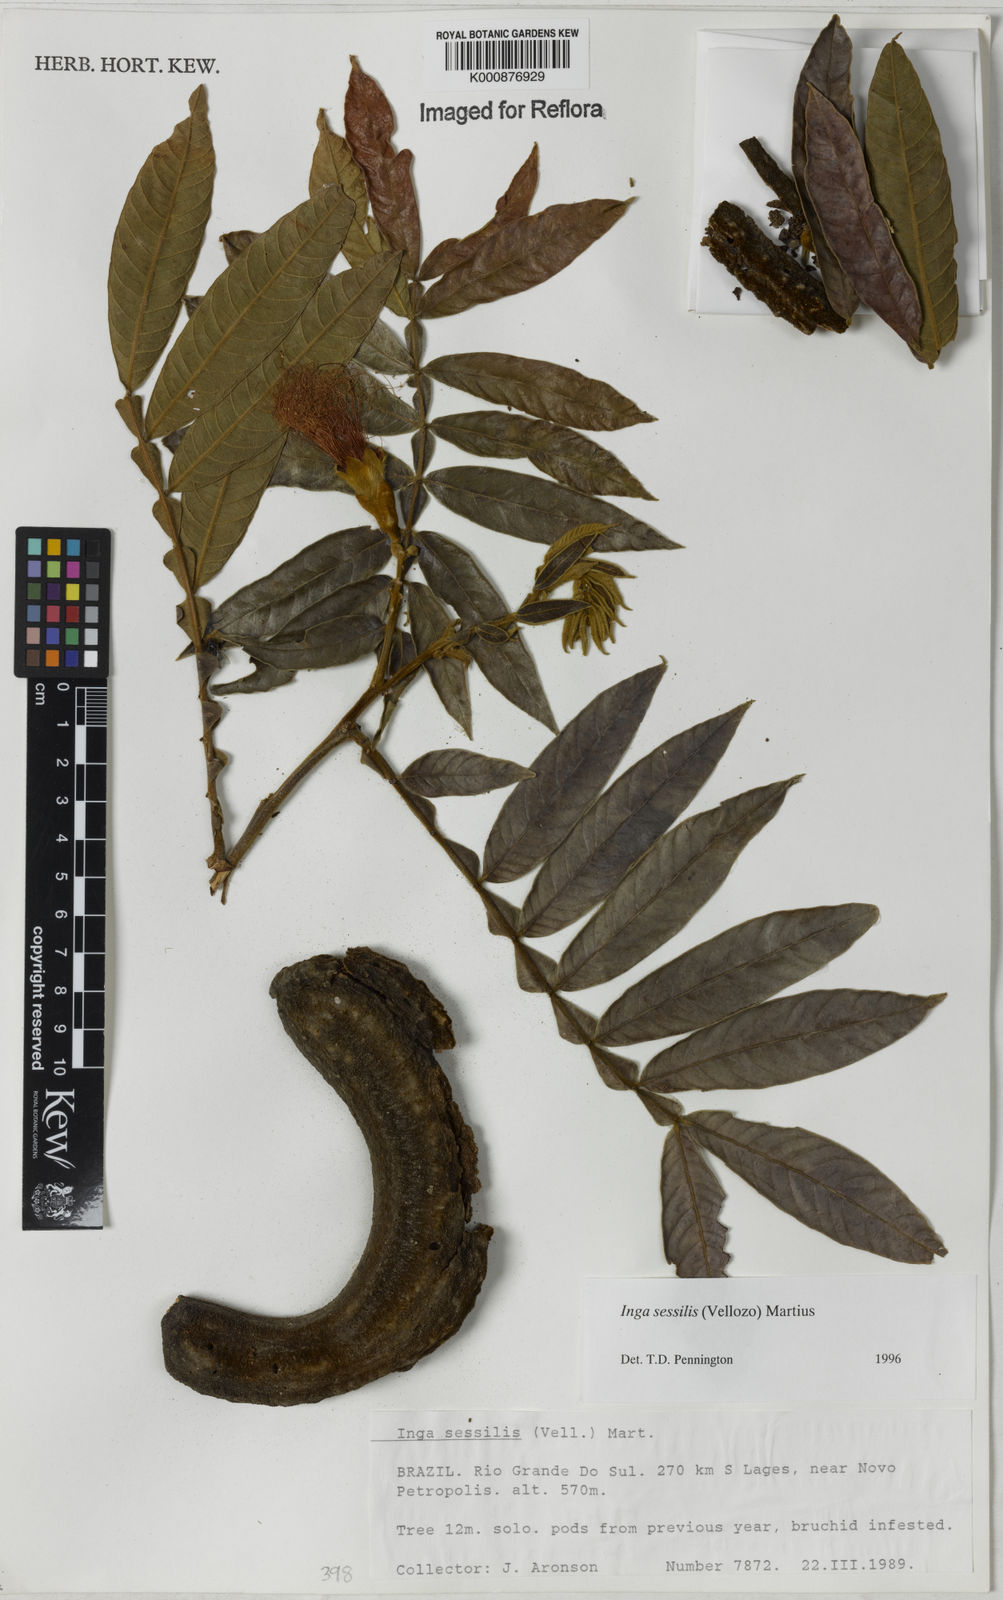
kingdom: Plantae
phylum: Tracheophyta
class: Magnoliopsida
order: Fabales
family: Fabaceae
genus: Inga
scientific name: Inga sessilis
